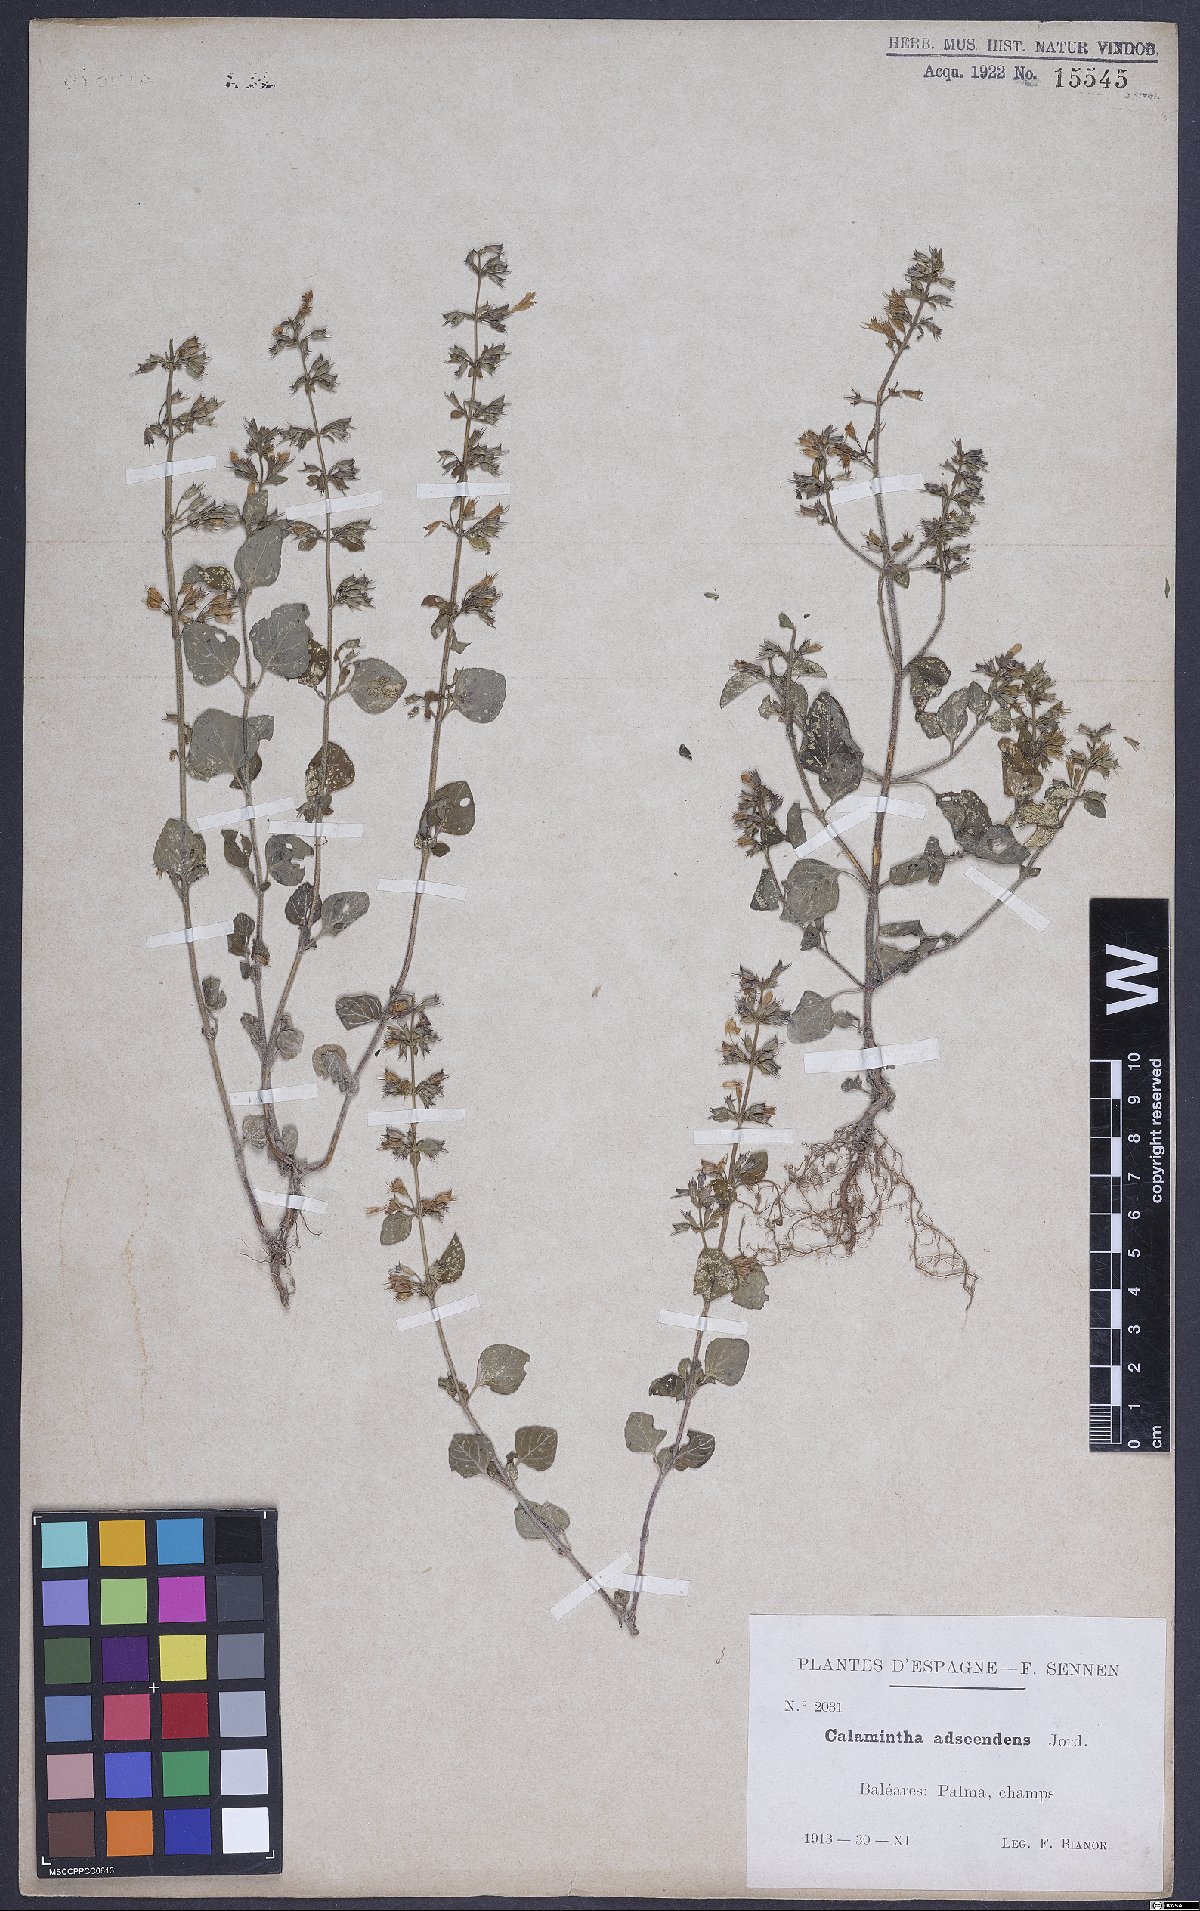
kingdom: Plantae
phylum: Tracheophyta
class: Magnoliopsida
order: Lamiales
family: Lamiaceae
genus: Clinopodium
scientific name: Clinopodium menthifolium
